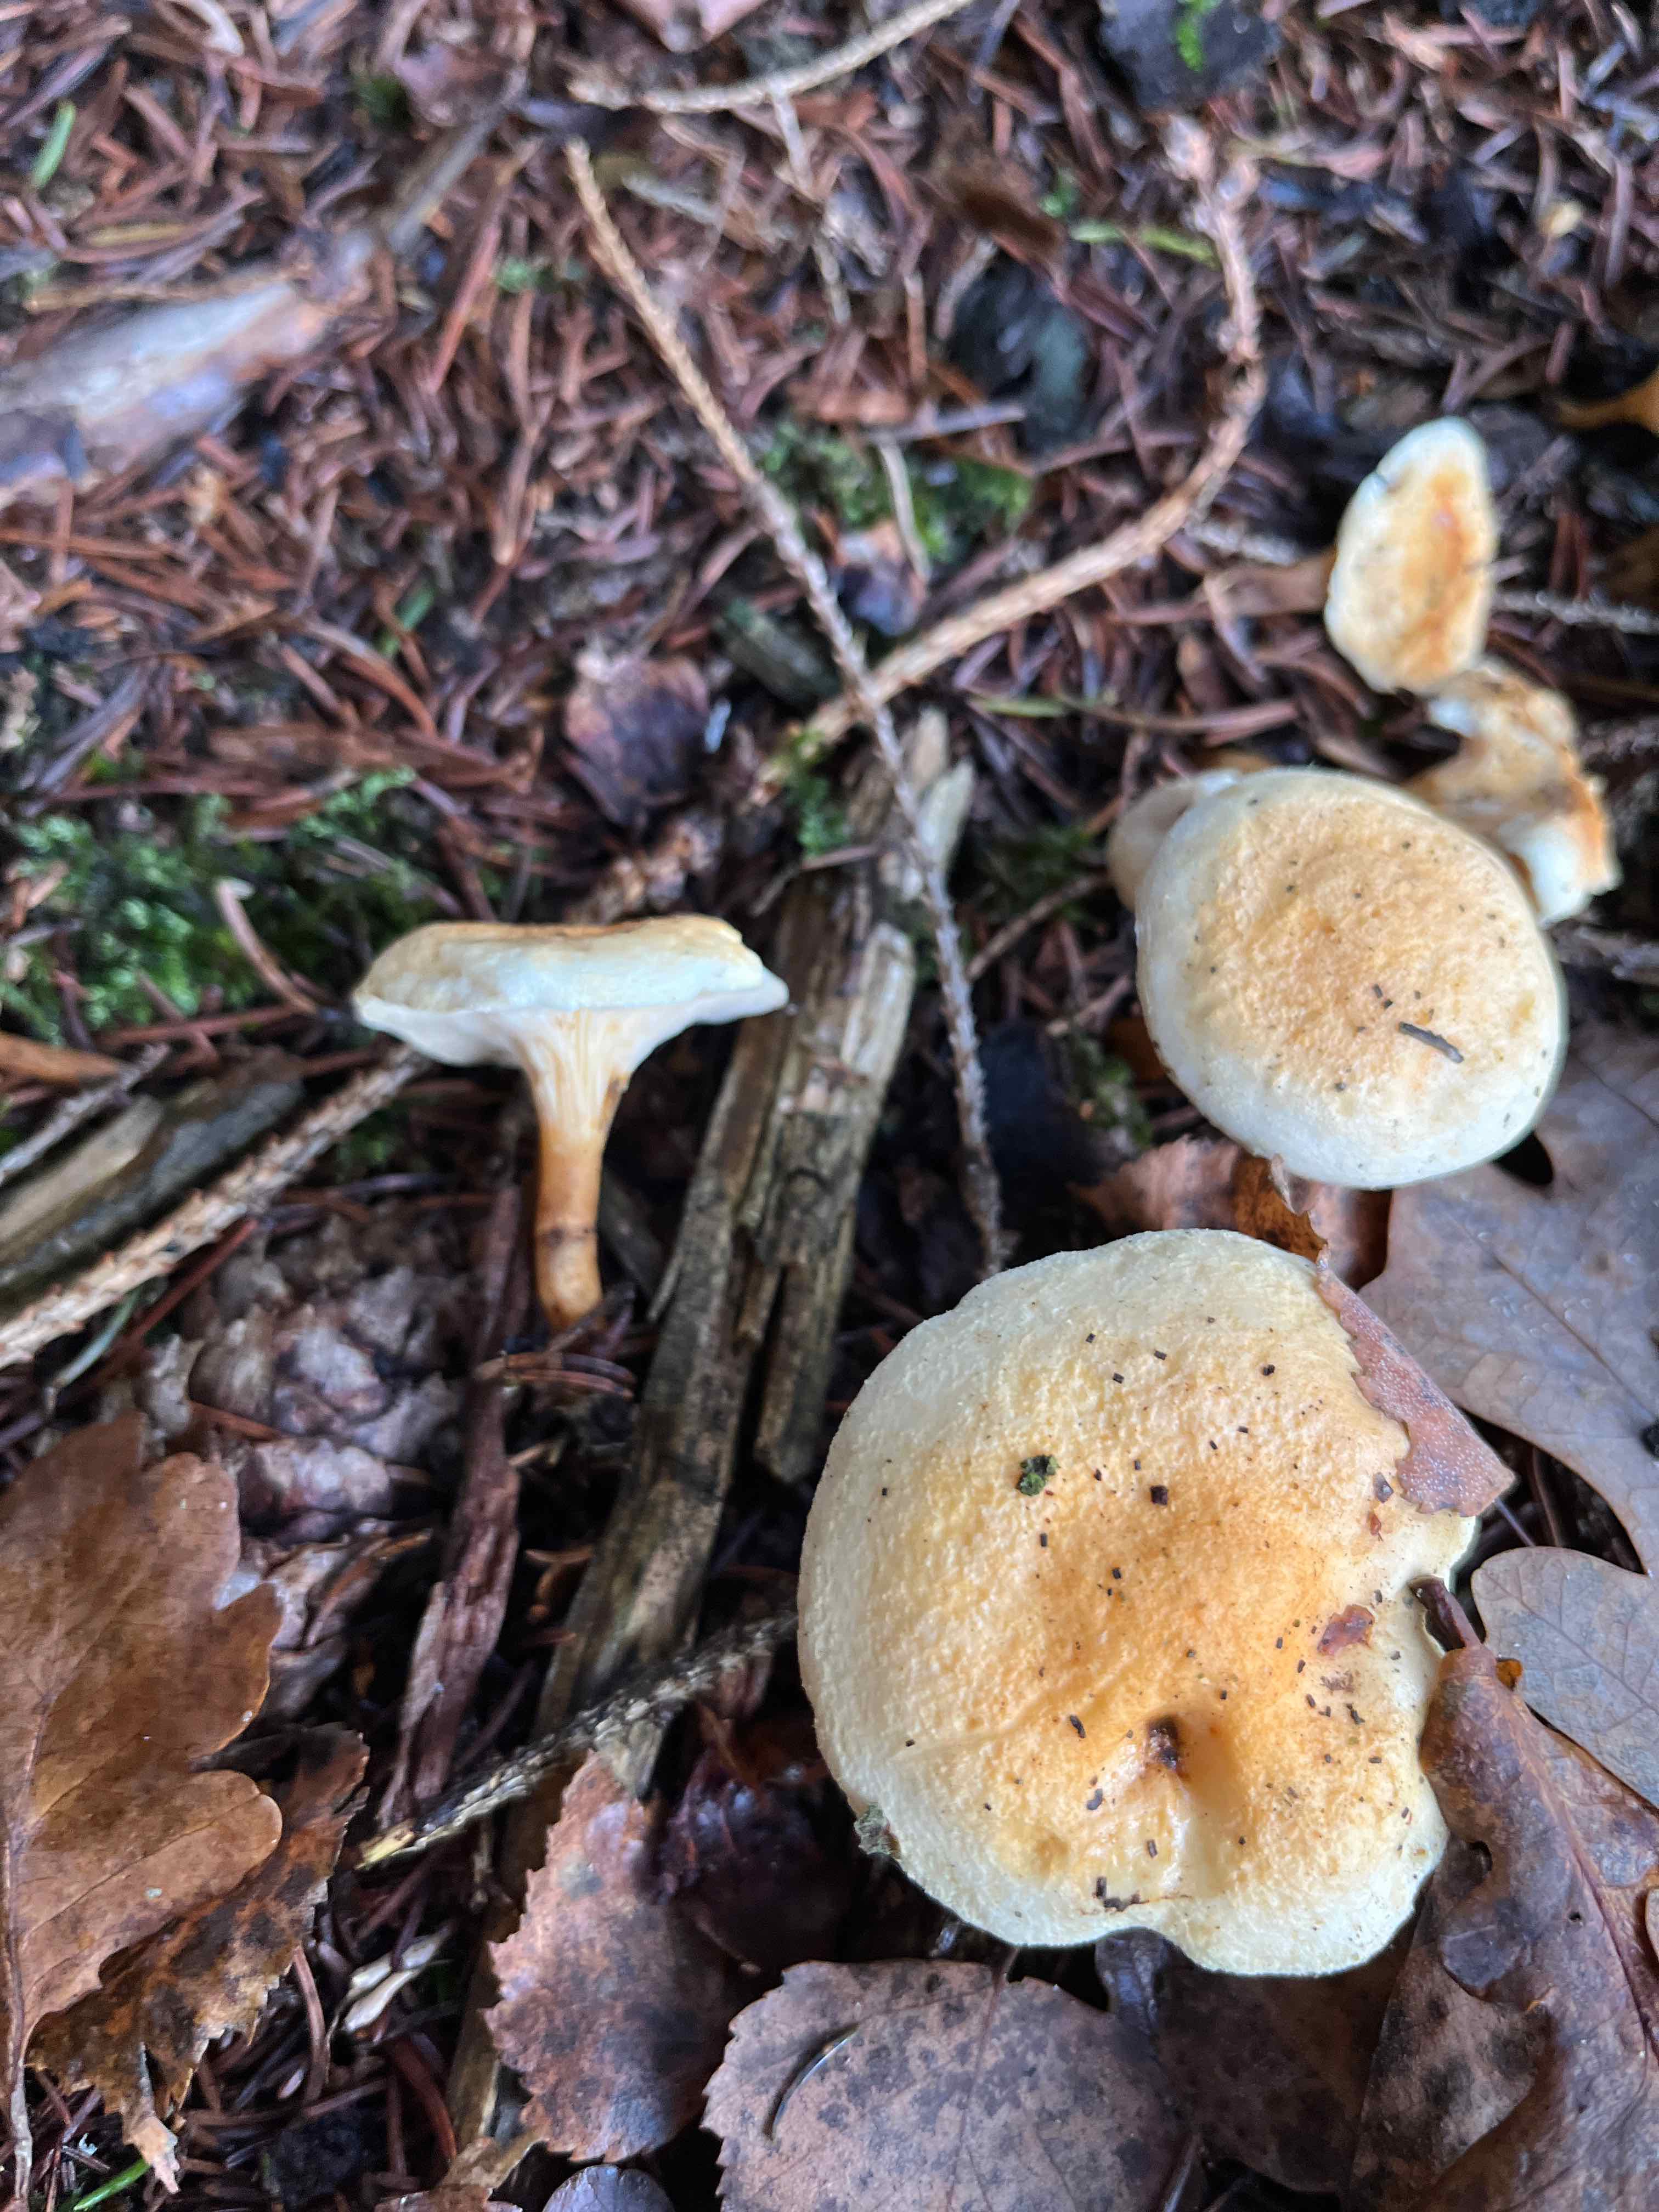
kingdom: Fungi
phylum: Basidiomycota
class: Agaricomycetes
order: Boletales
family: Hygrophoropsidaceae
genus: Hygrophoropsis
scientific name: Hygrophoropsis pallida
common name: bleg orangekantarel
